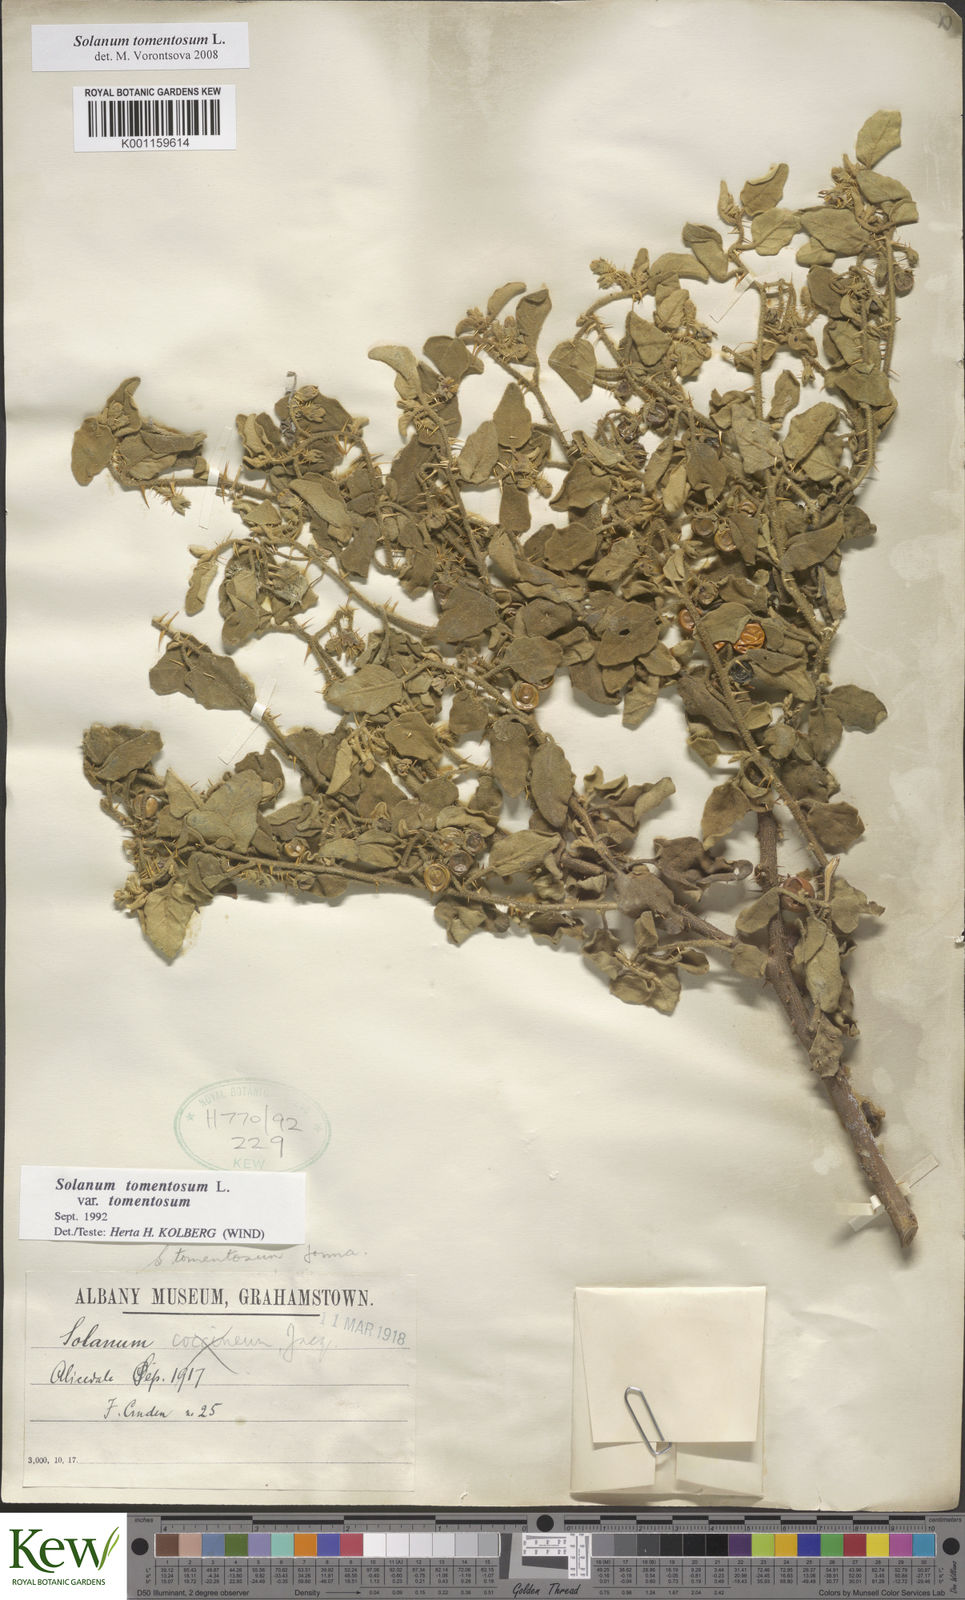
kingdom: Plantae
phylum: Tracheophyta
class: Magnoliopsida
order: Solanales
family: Solanaceae
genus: Solanum
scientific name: Solanum tomentosum
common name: Wild aubergine
